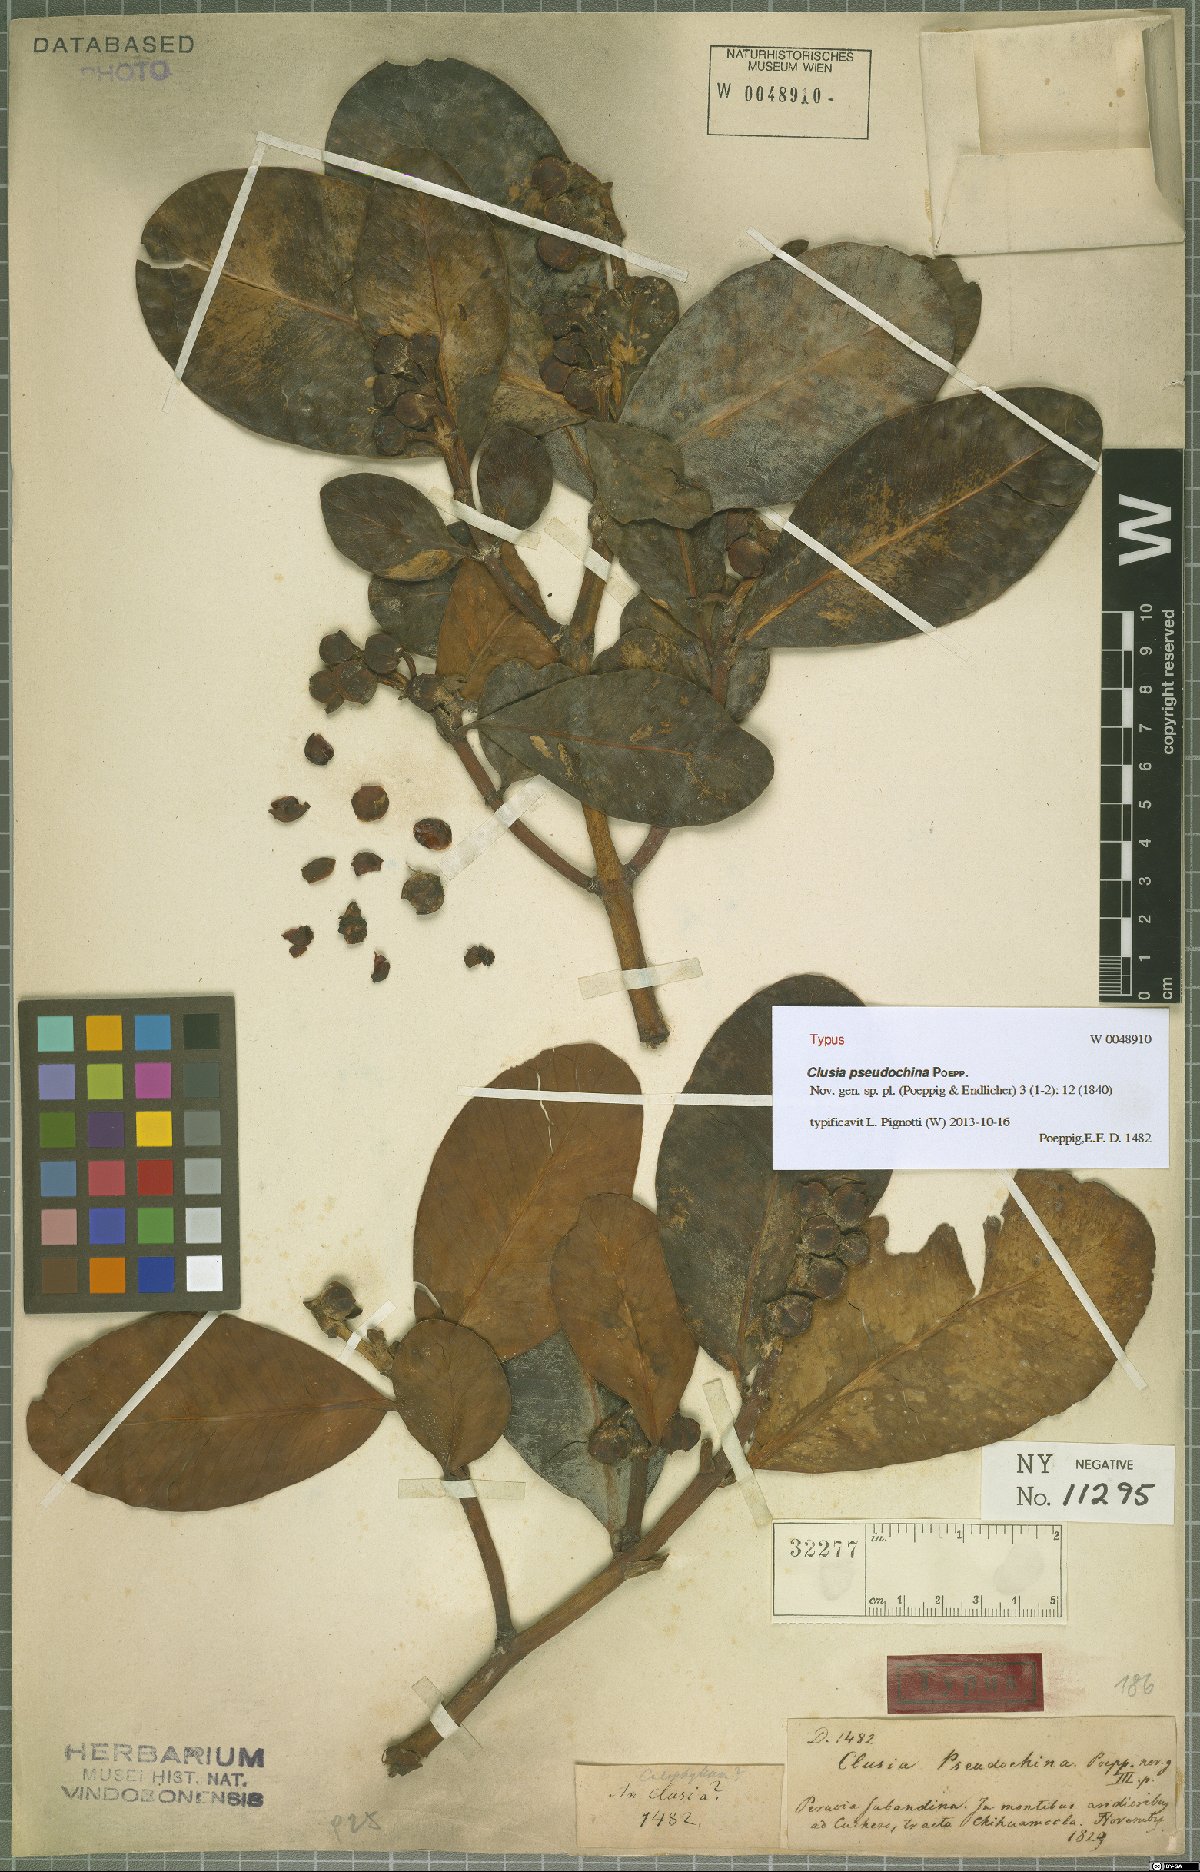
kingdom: Plantae
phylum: Tracheophyta
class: Magnoliopsida
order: Malpighiales
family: Clusiaceae
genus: Clusia
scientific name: Clusia pseudochina
